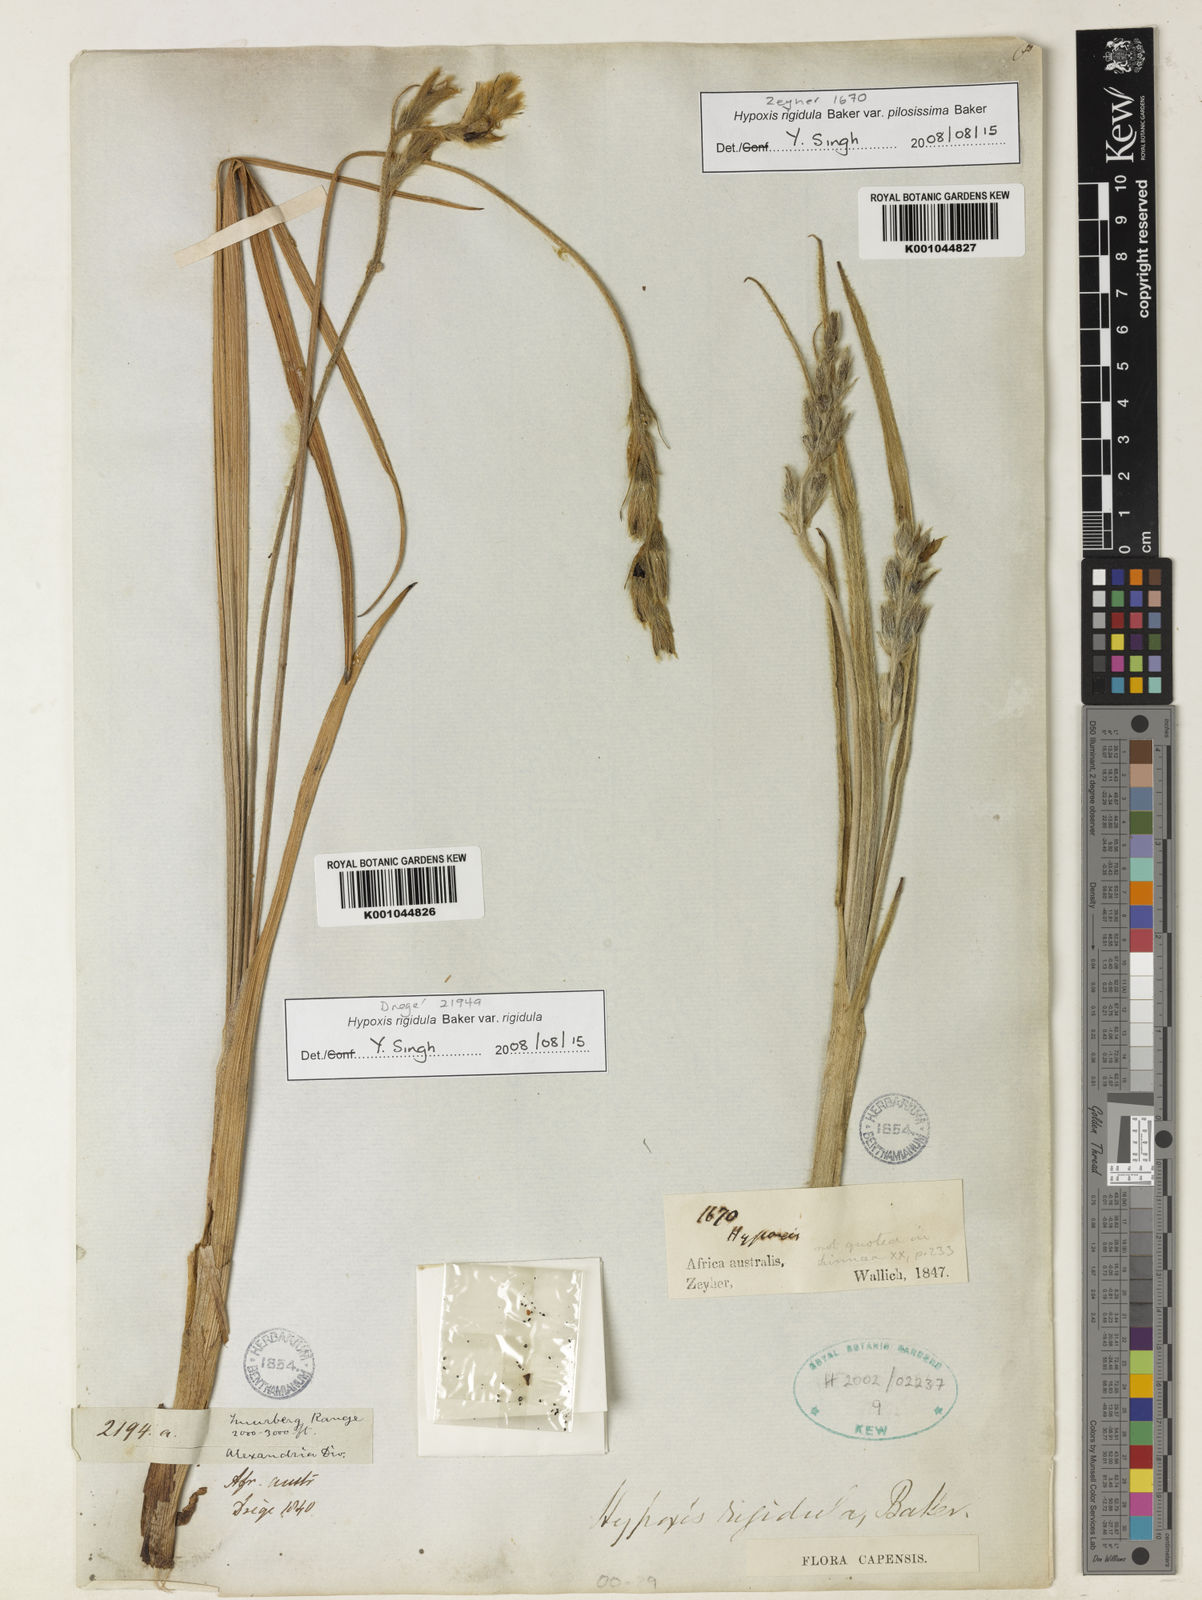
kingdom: Plantae
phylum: Tracheophyta
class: Liliopsida
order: Asparagales
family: Hypoxidaceae
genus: Hypoxis
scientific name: Hypoxis rigidula
